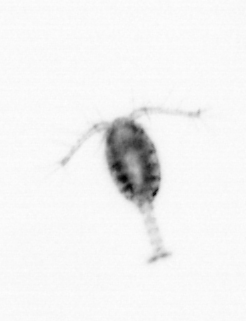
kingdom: Animalia
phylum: Arthropoda
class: Copepoda
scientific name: Copepoda
